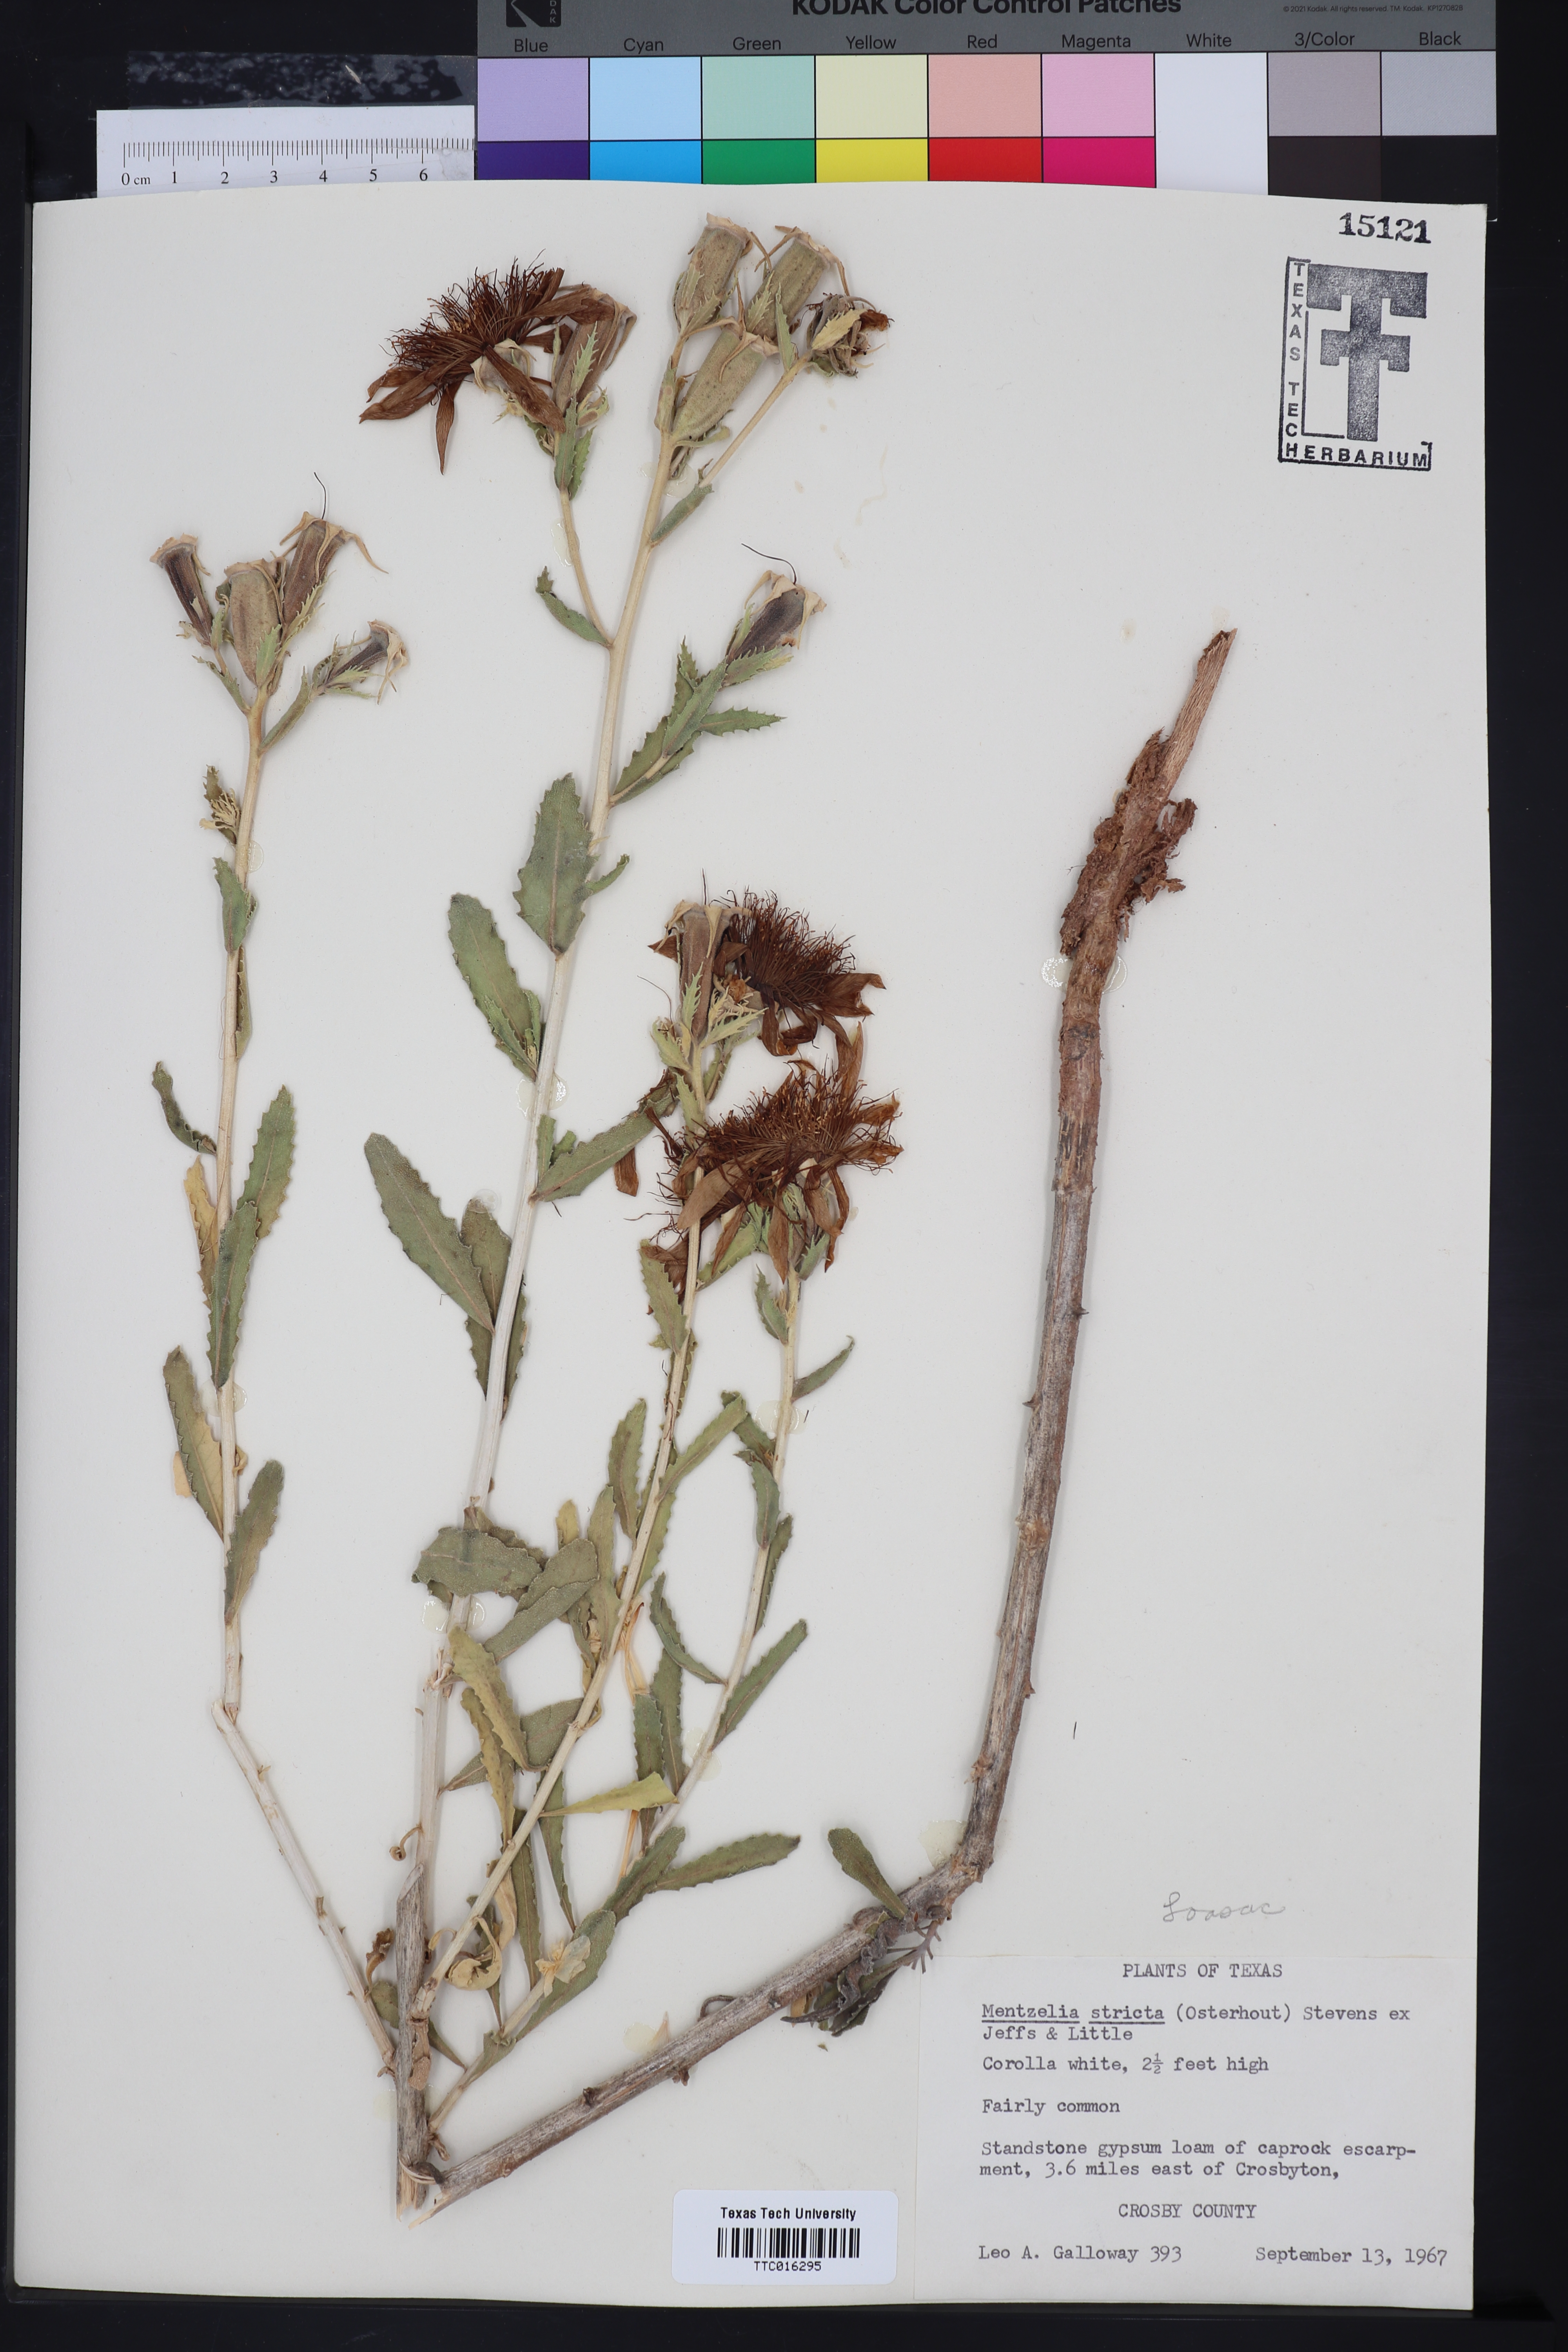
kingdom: Plantae
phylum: Tracheophyta
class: Magnoliopsida
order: Cornales
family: Loasaceae
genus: Mentzelia
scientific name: Mentzelia nuda
